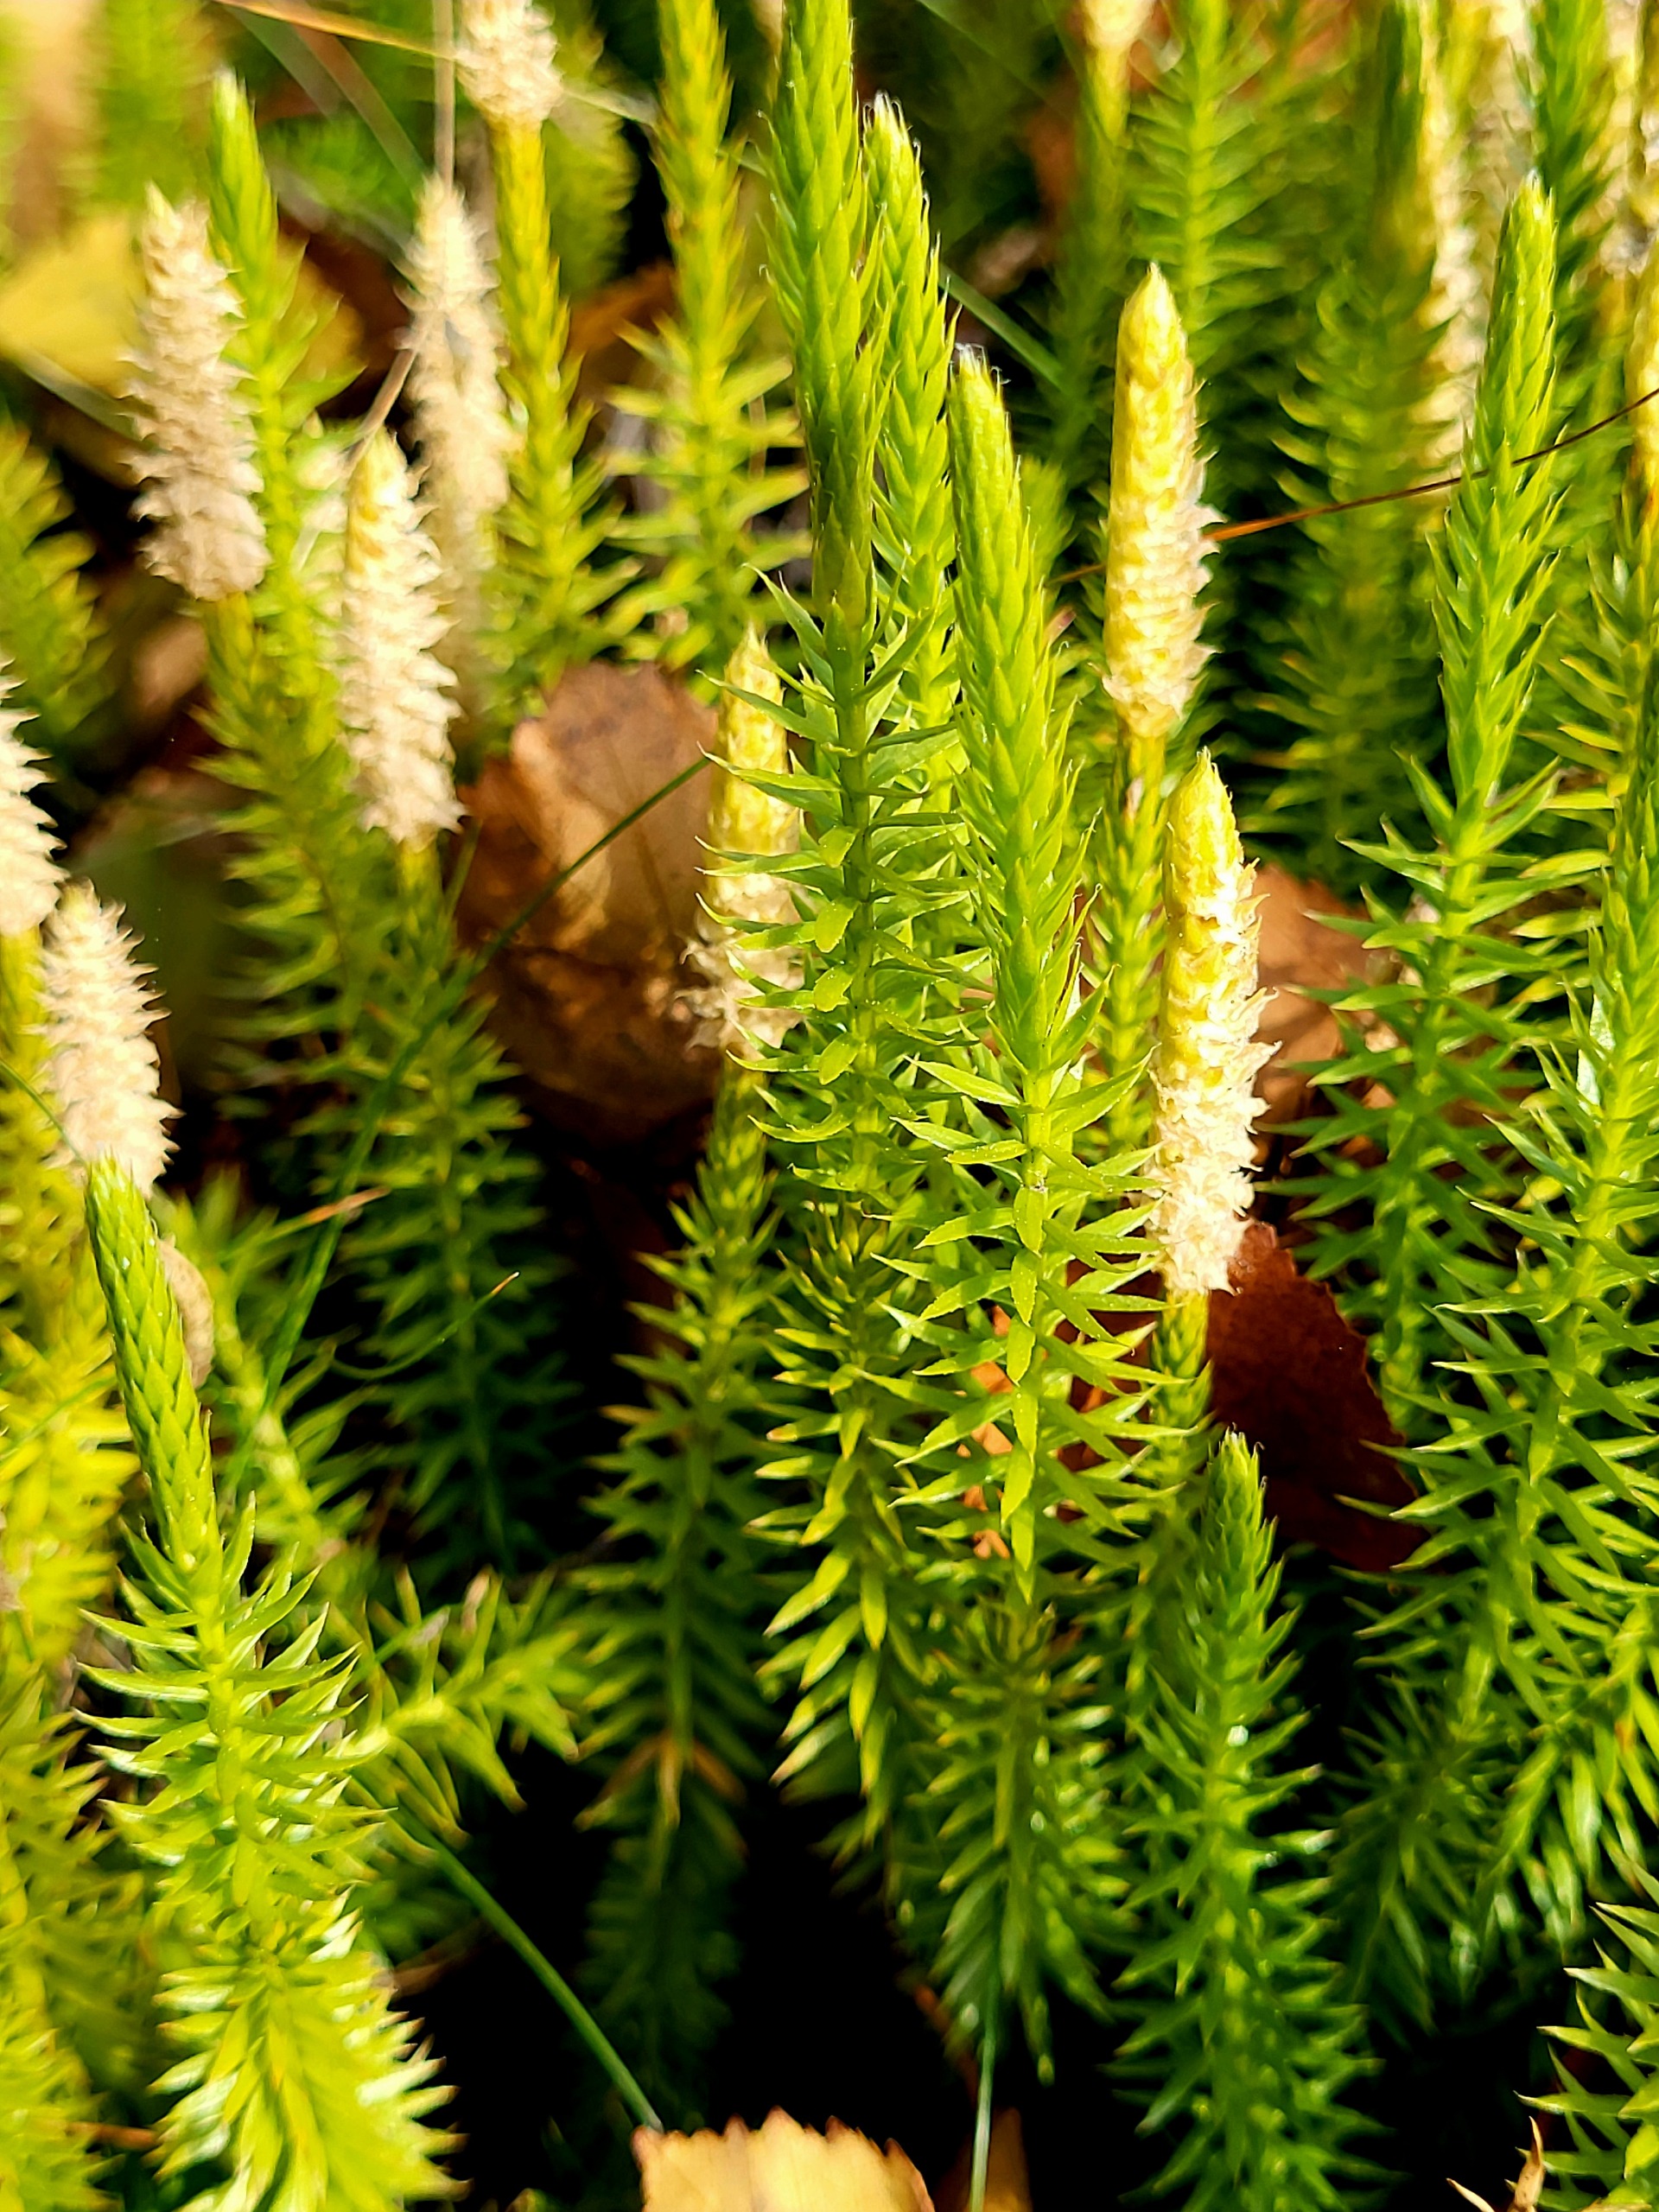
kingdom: Plantae
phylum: Tracheophyta
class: Lycopodiopsida
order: Lycopodiales
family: Lycopodiaceae
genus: Spinulum
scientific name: Spinulum annotinum
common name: Femradet ulvefod
